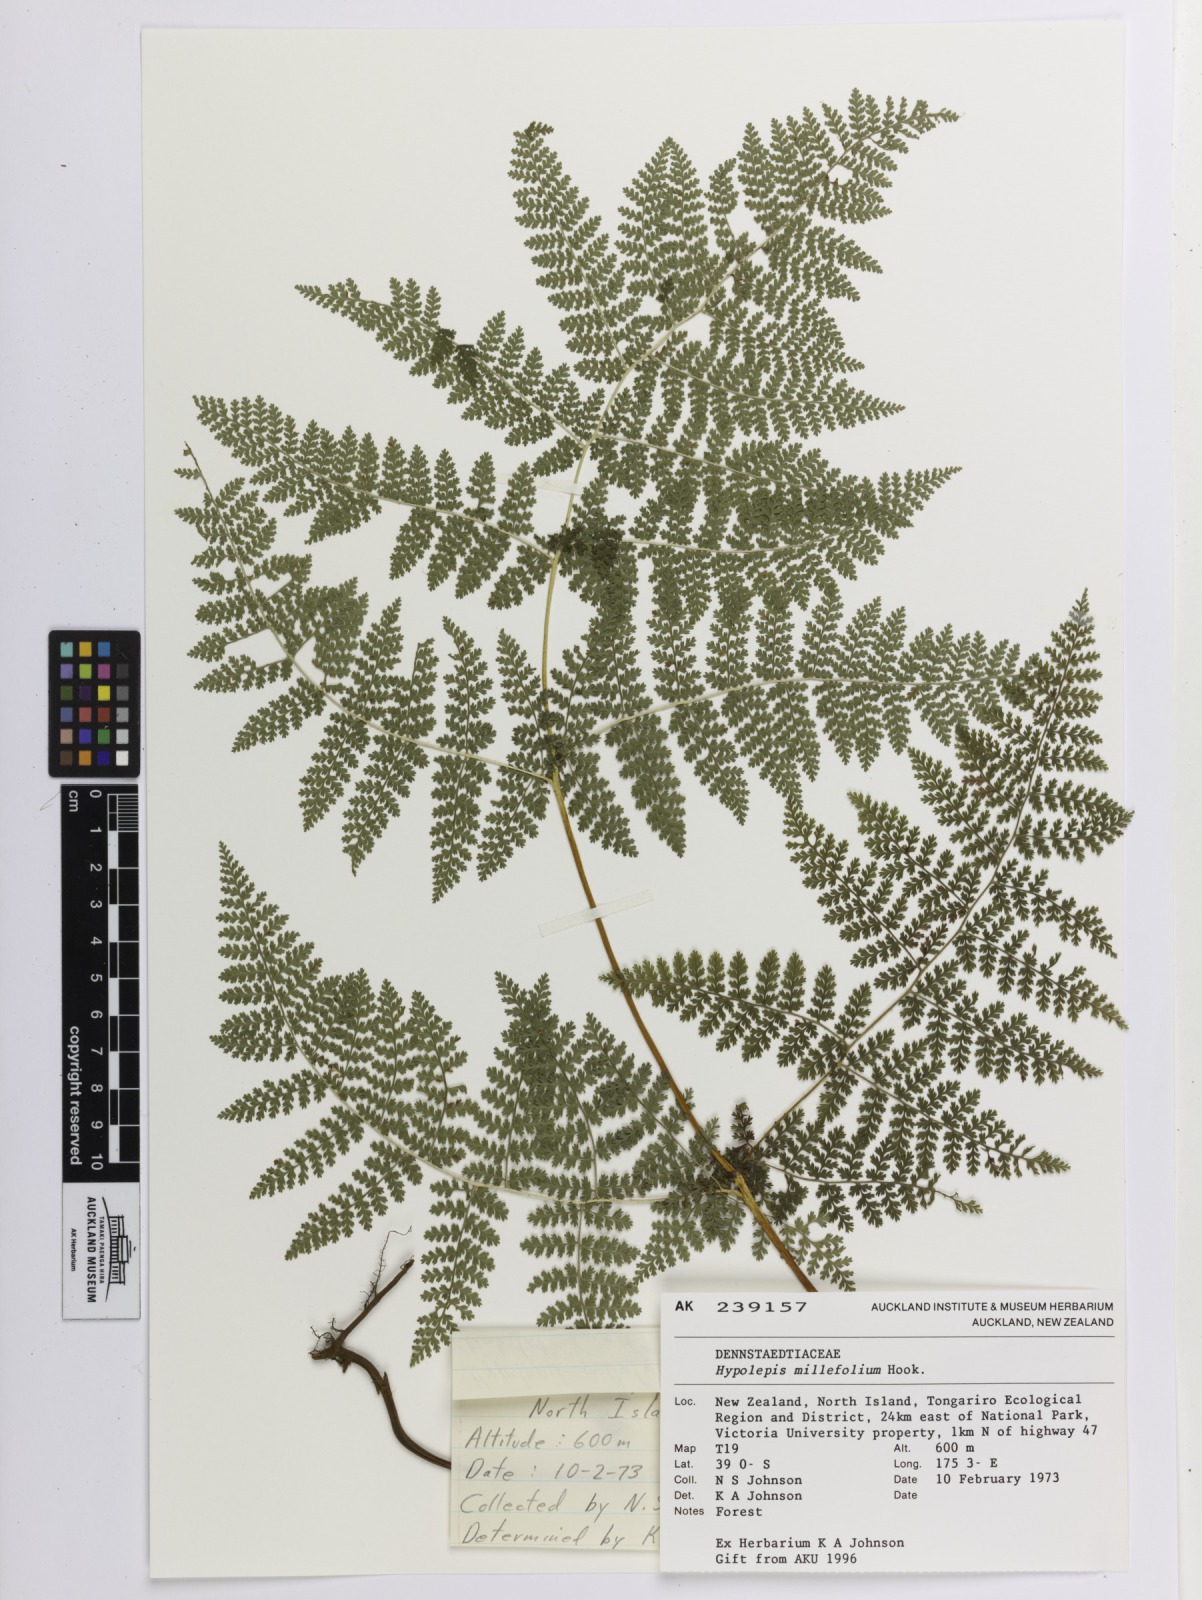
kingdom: Plantae
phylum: Tracheophyta
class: Polypodiopsida
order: Polypodiales
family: Dennstaedtiaceae
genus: Hypolepis
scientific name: Hypolepis millefolium
